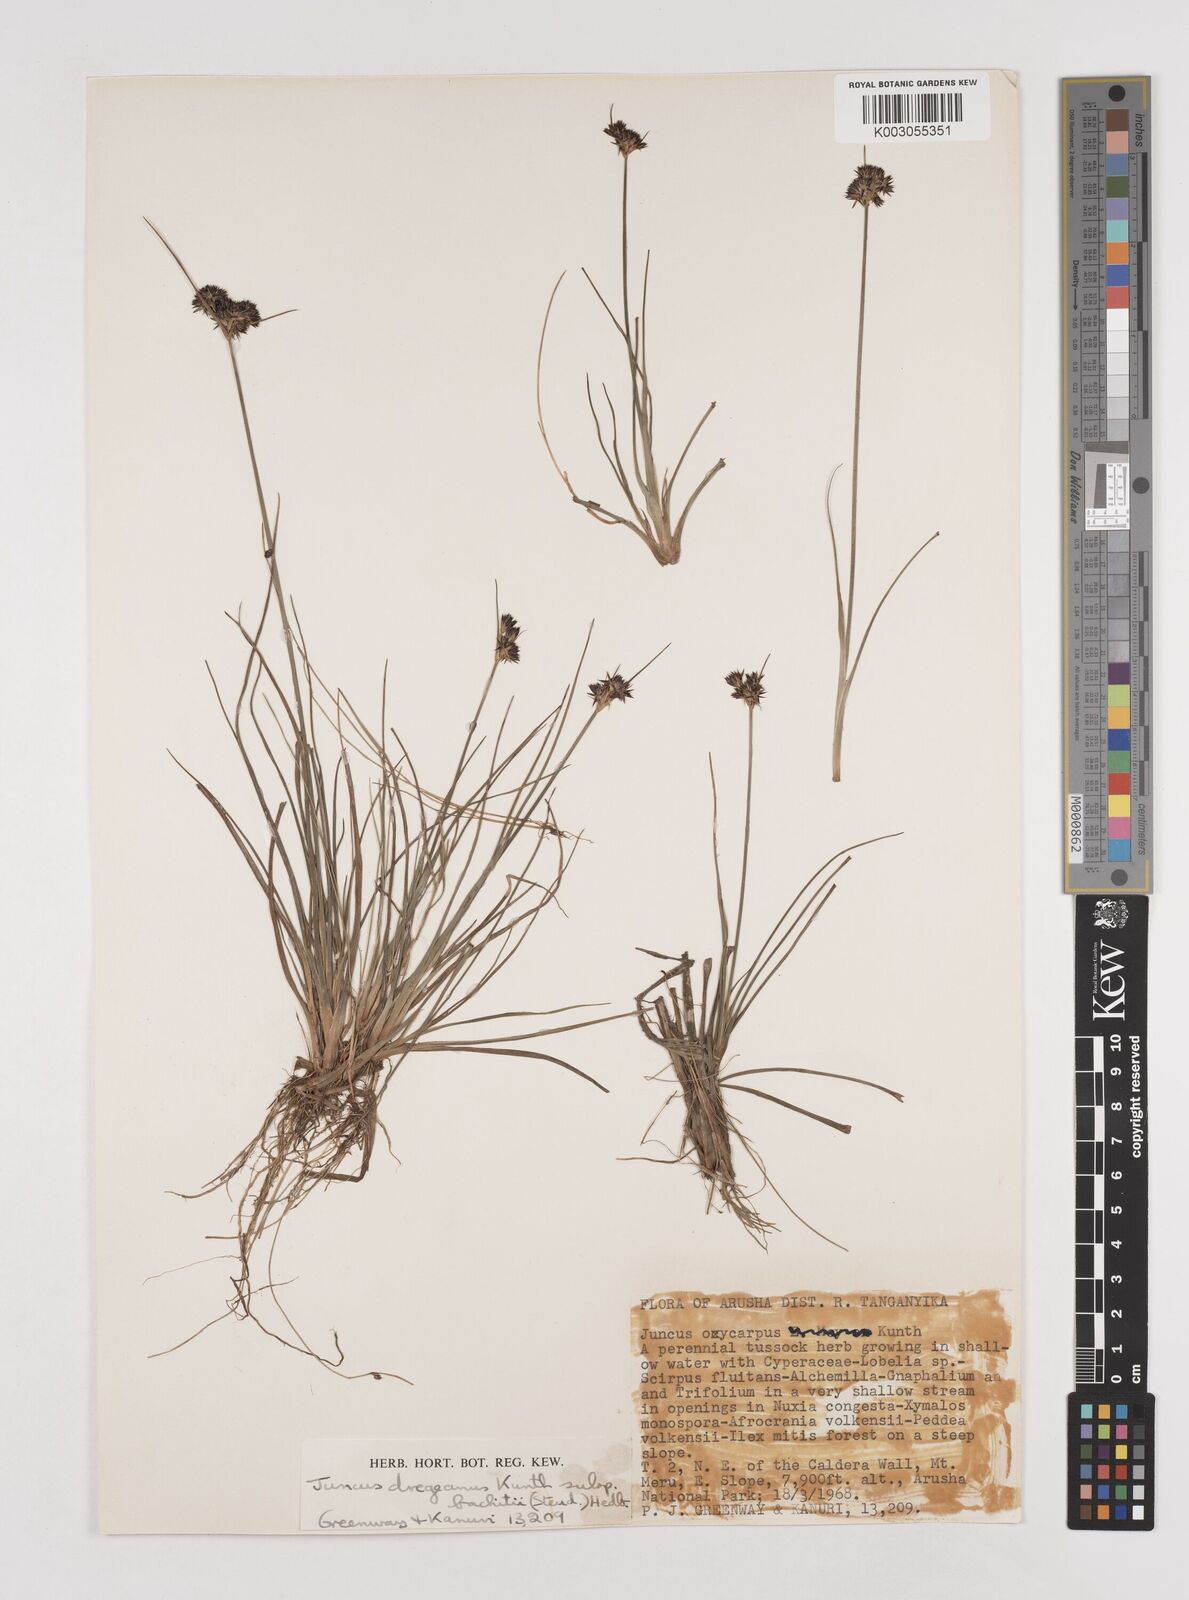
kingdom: Plantae
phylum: Tracheophyta
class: Liliopsida
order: Poales
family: Juncaceae
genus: Juncus
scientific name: Juncus dregeanus
